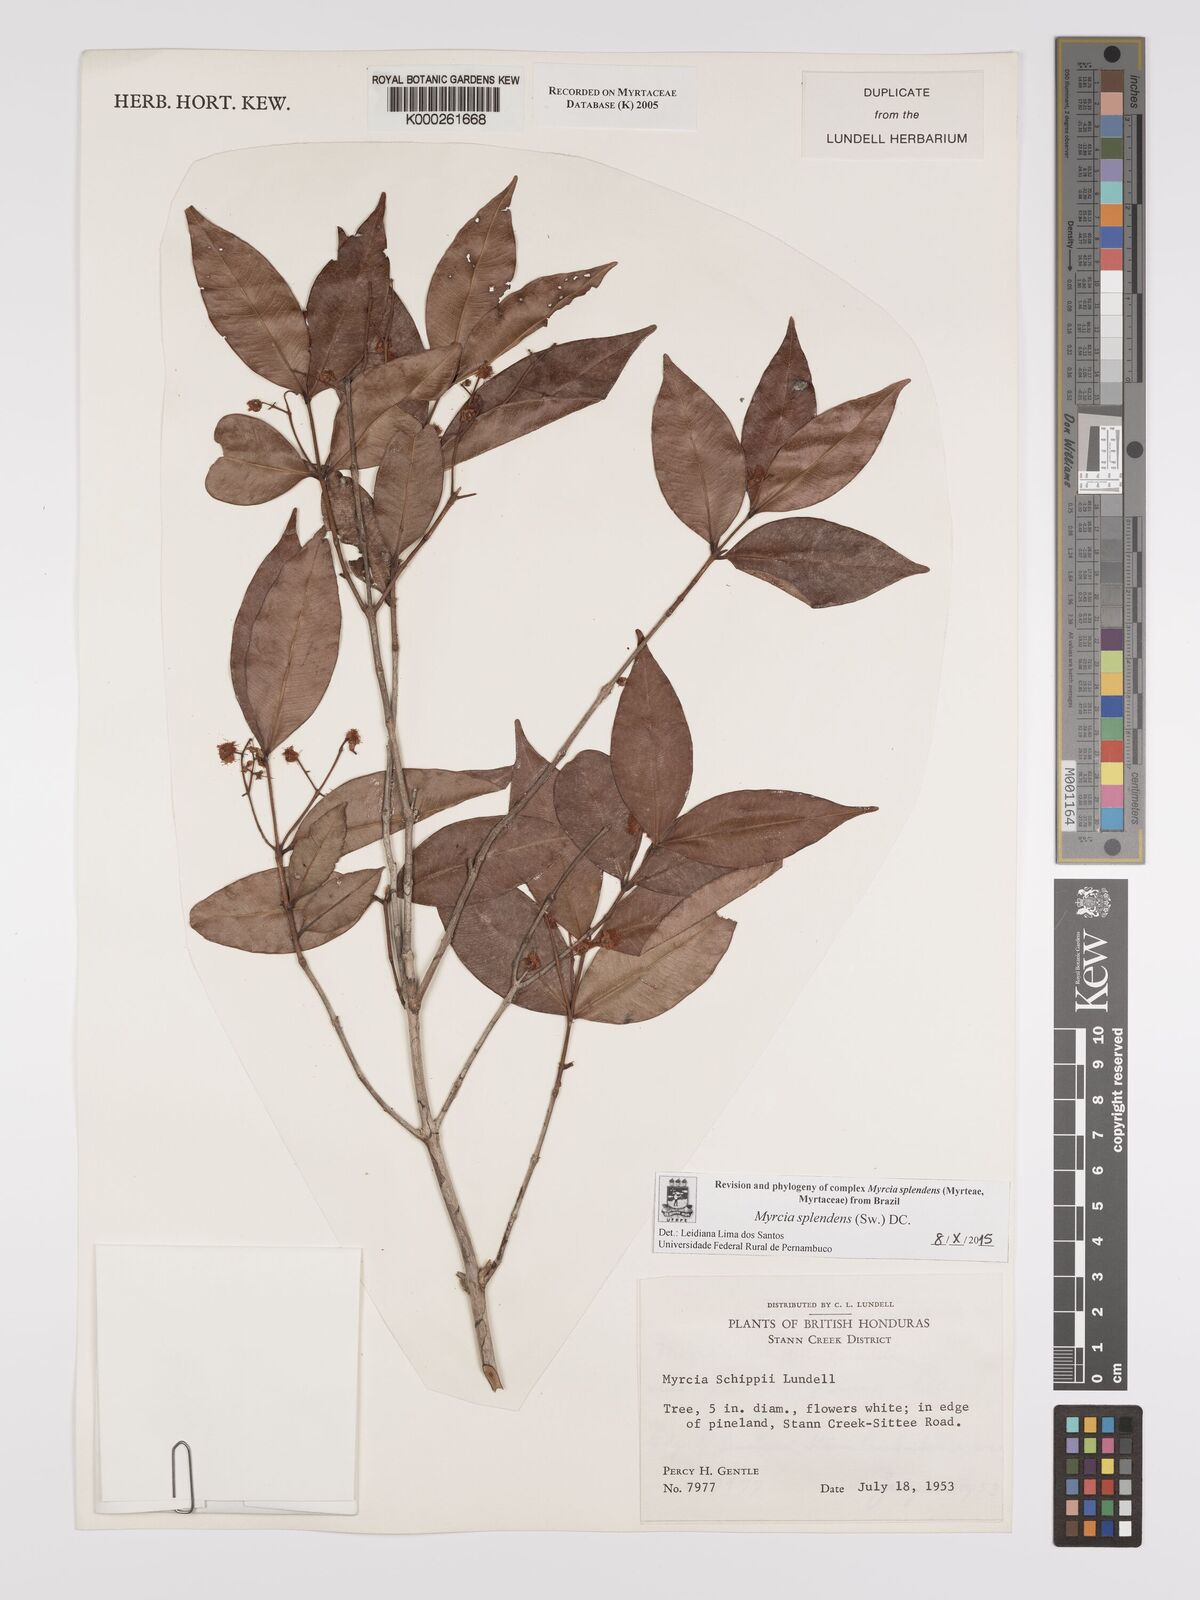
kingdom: Plantae
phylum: Tracheophyta
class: Magnoliopsida
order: Myrtales
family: Myrtaceae
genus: Myrcia
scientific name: Myrcia splendens
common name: Surinam cherry
